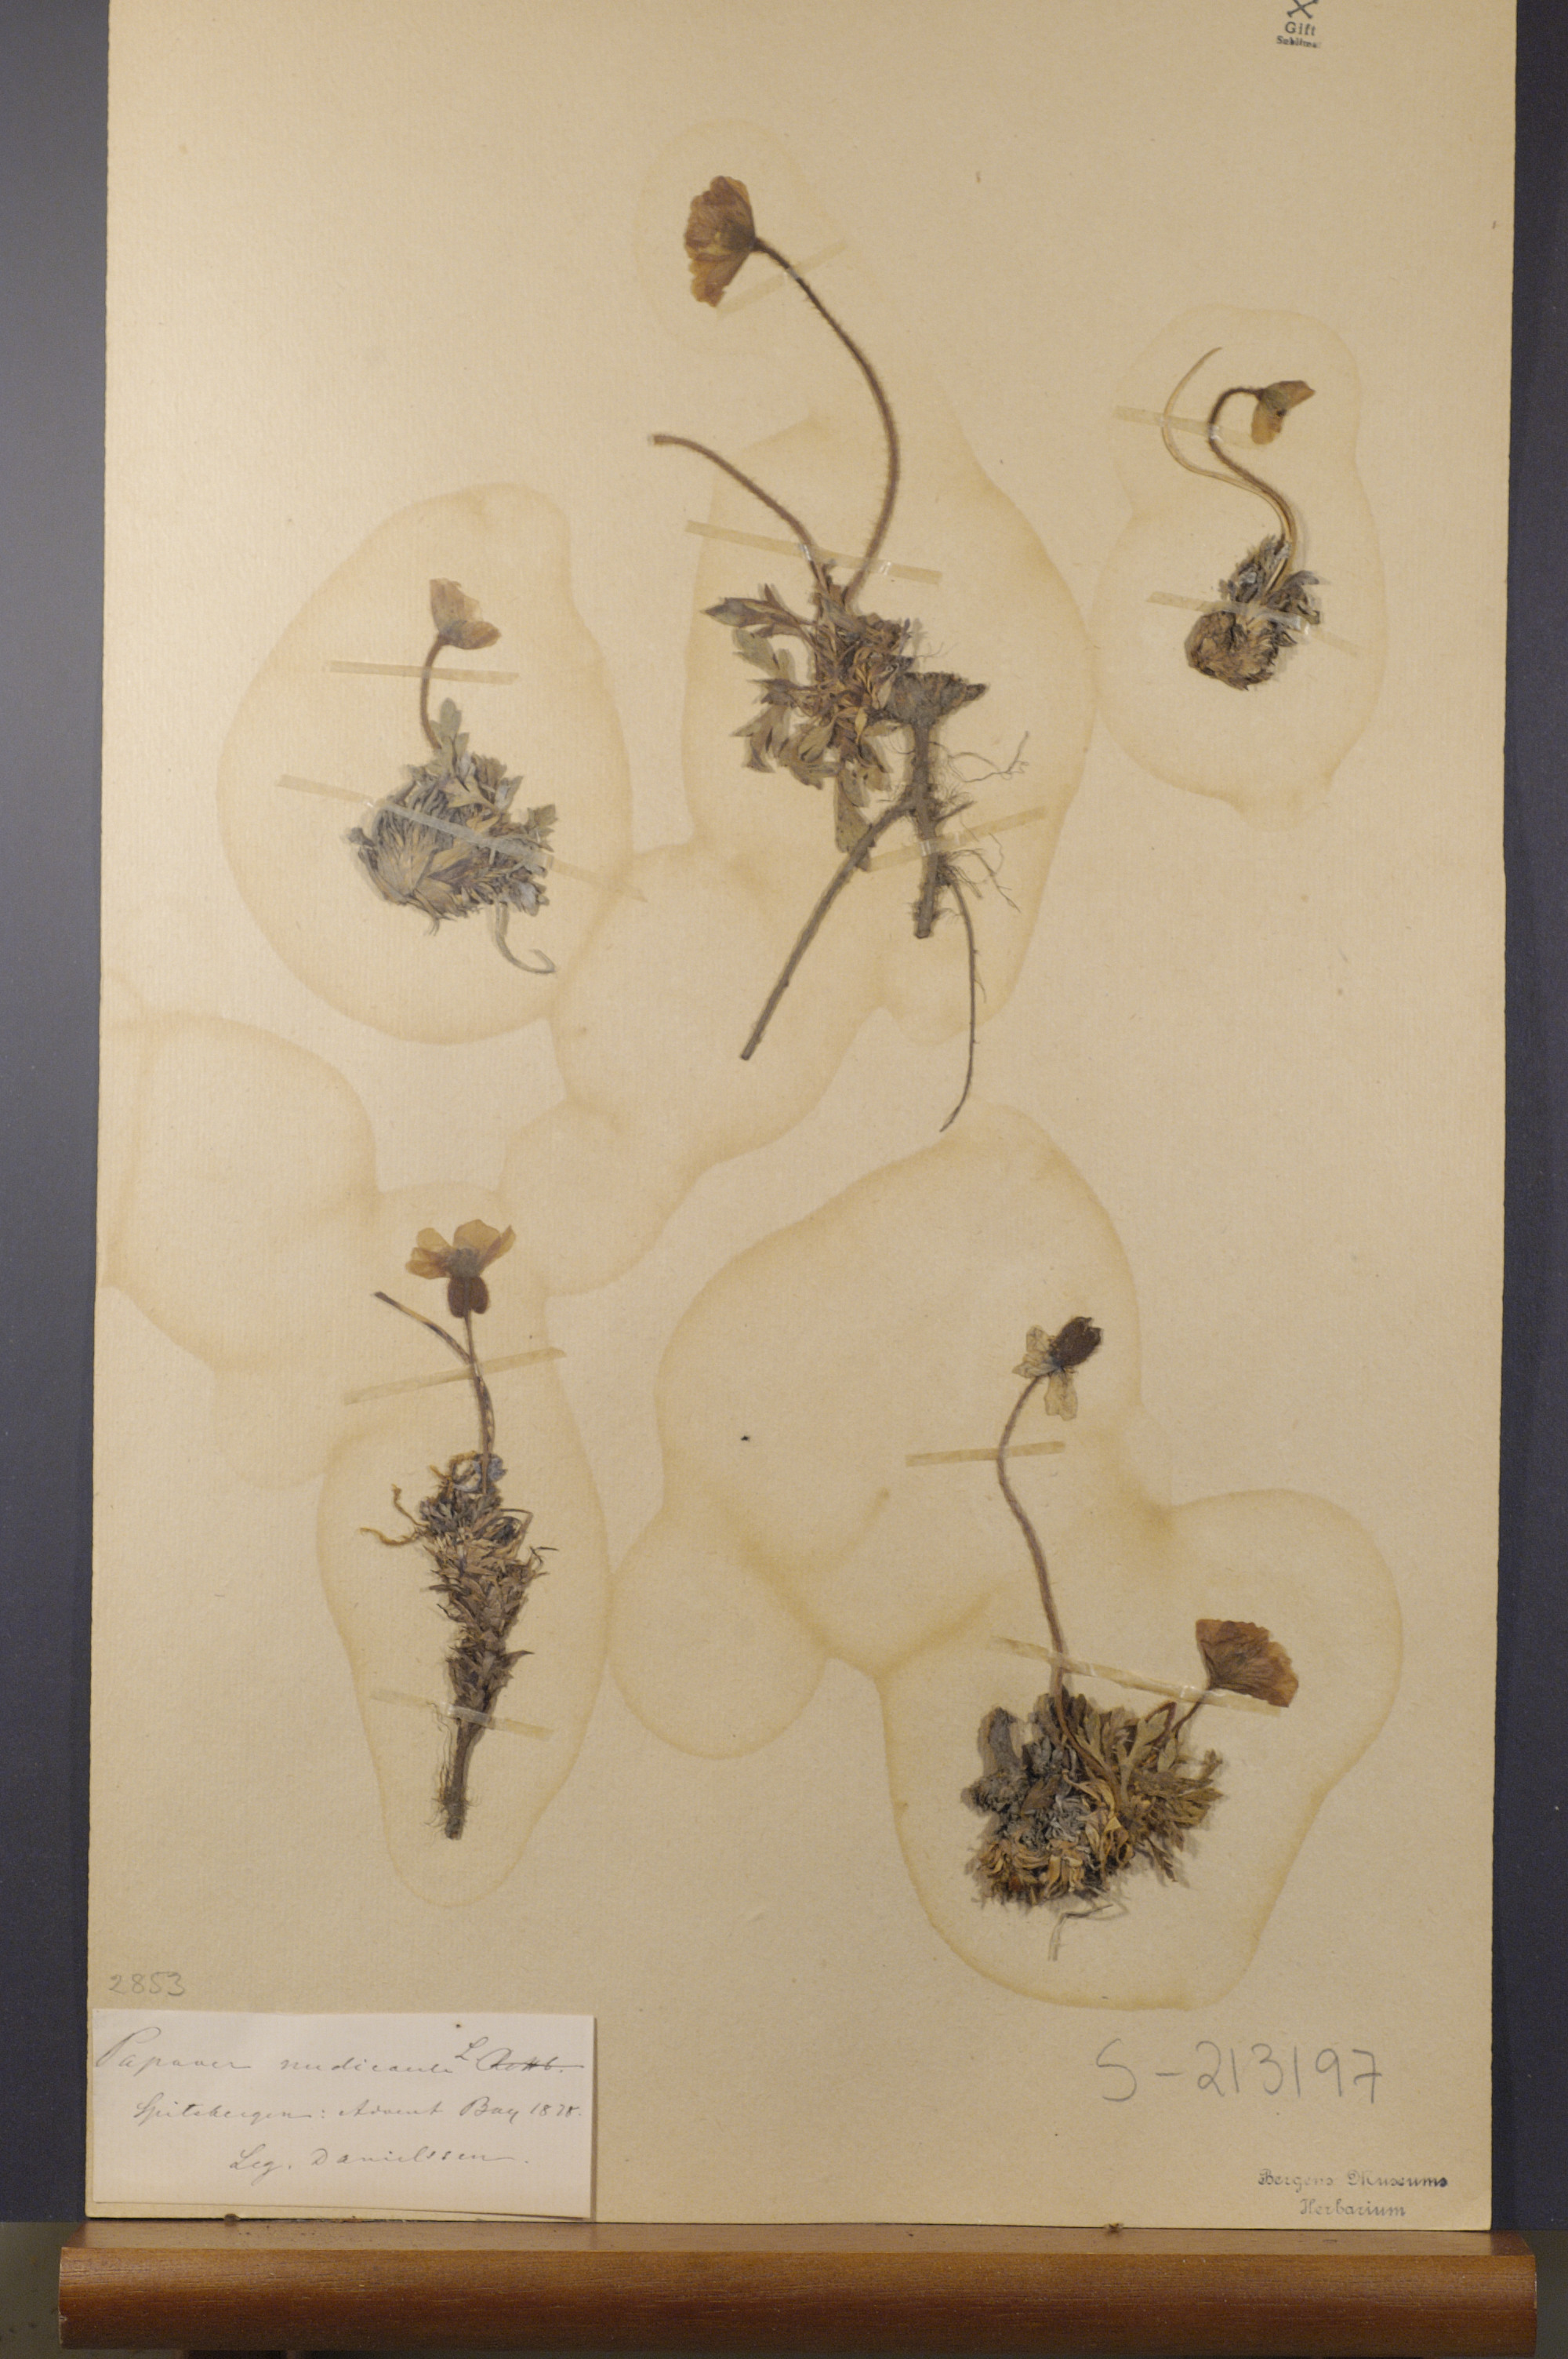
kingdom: Plantae
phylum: Tracheophyta
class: Magnoliopsida
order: Ranunculales
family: Papaveraceae
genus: Papaver
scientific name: Papaver nudicaule
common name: Arctic poppy
